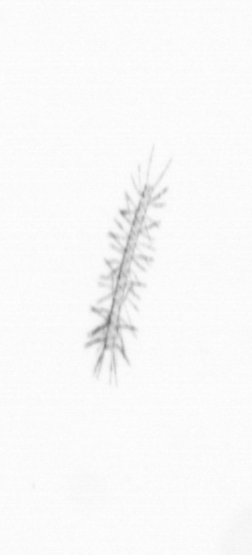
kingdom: Chromista
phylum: Ochrophyta
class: Bacillariophyceae
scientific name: Bacillariophyceae
